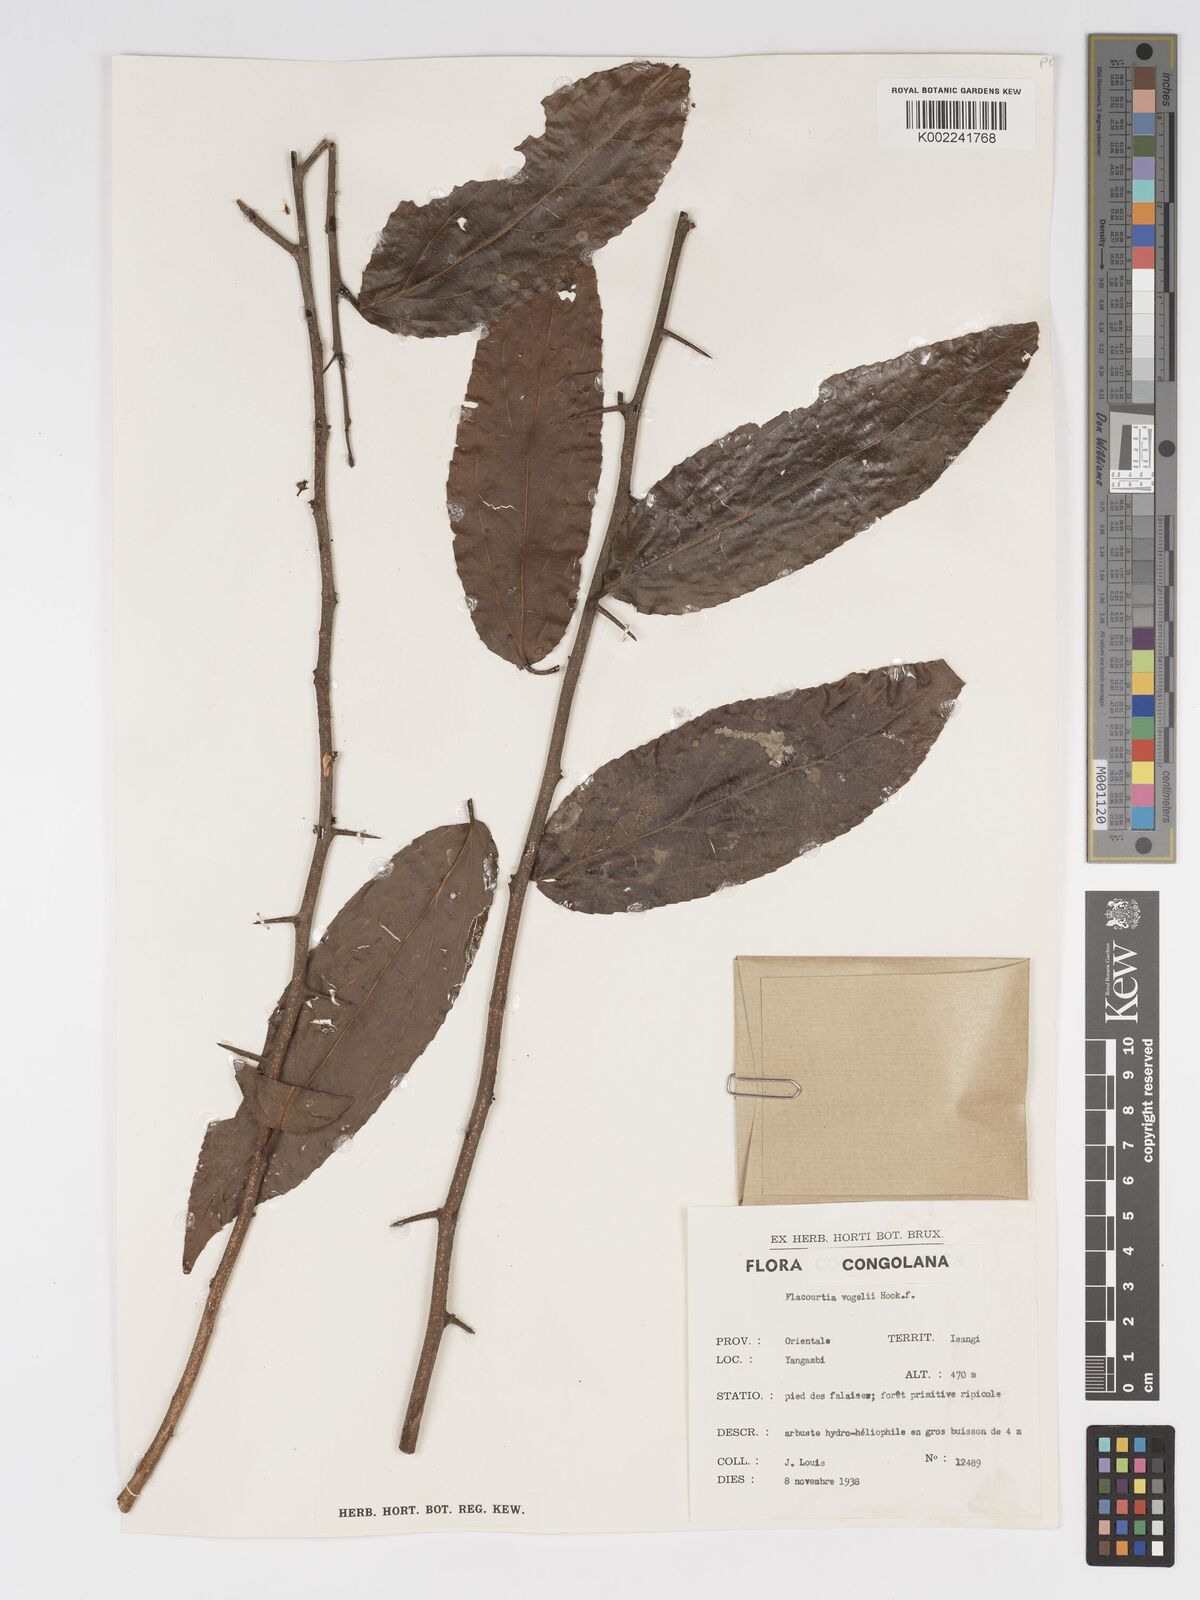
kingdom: Plantae
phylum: Tracheophyta
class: Magnoliopsida
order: Malpighiales
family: Salicaceae
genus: Flacourtia
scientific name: Flacourtia vogelii
